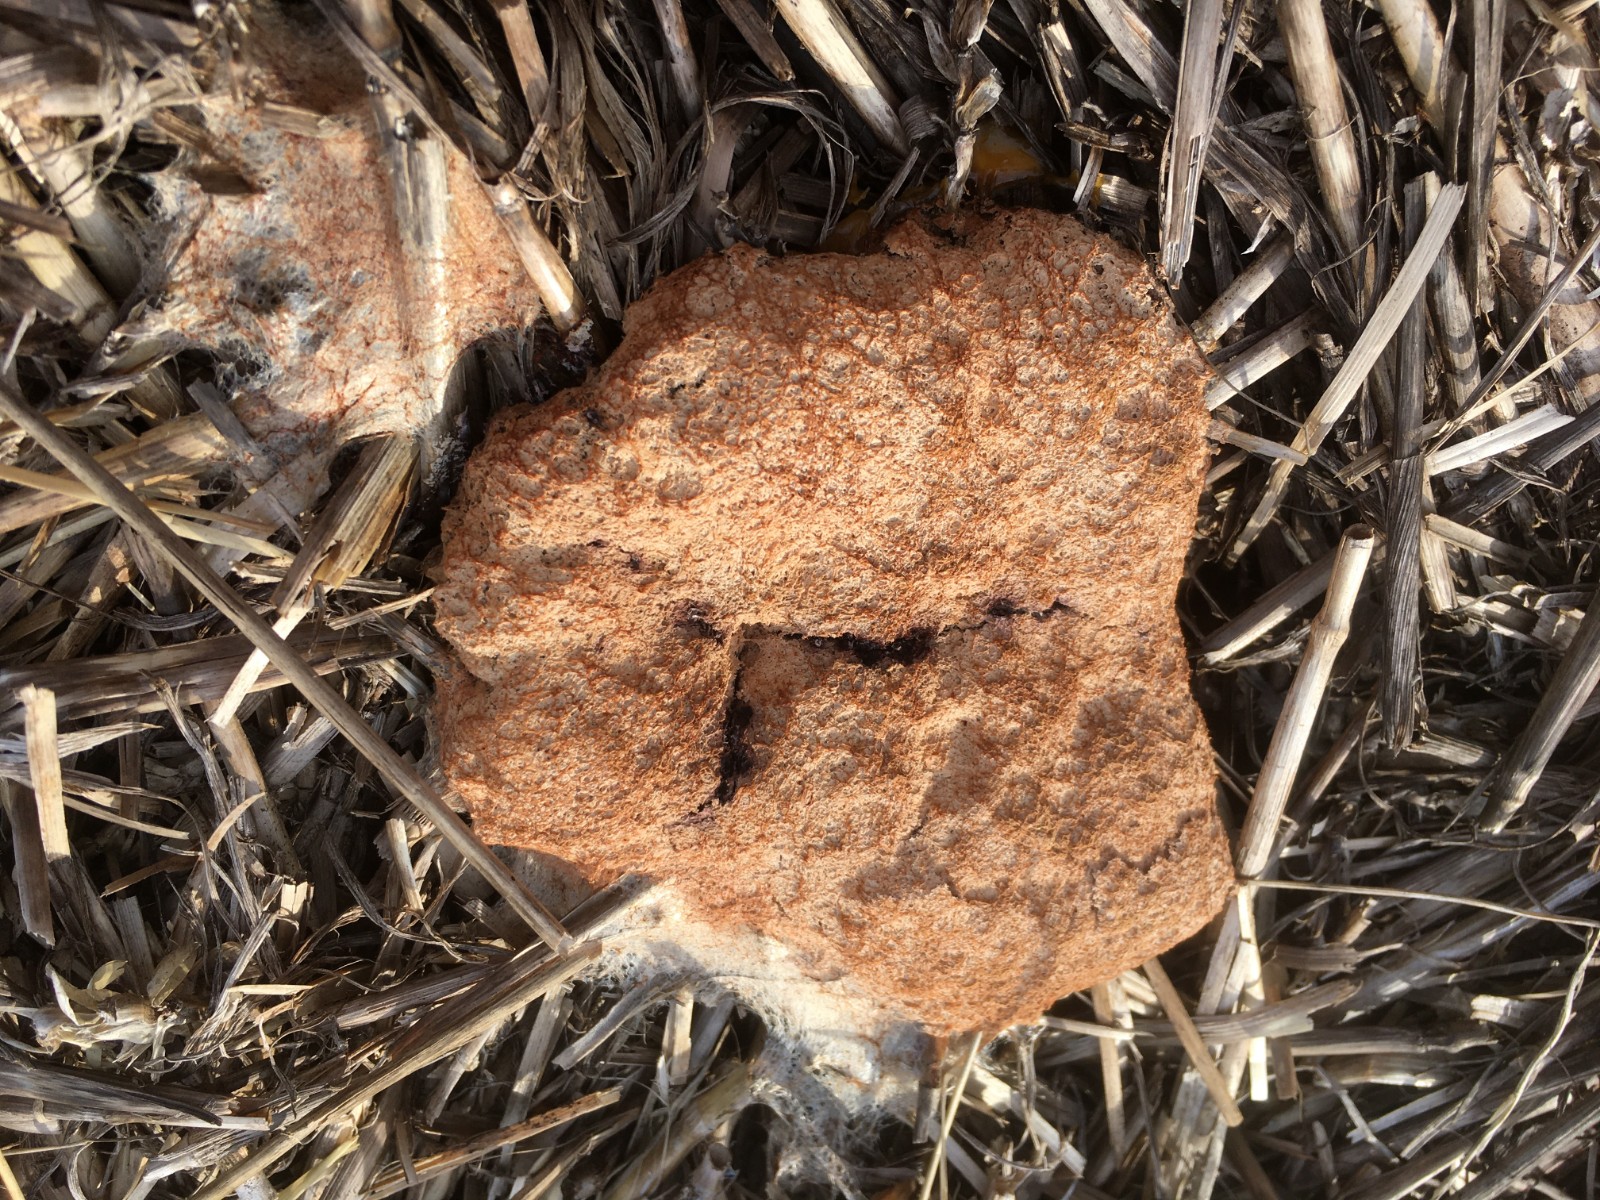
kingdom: Protozoa
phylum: Mycetozoa
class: Myxomycetes
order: Physarales
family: Physaraceae
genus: Fuligo
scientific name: Fuligo septica
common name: Dog vomit slime mold
